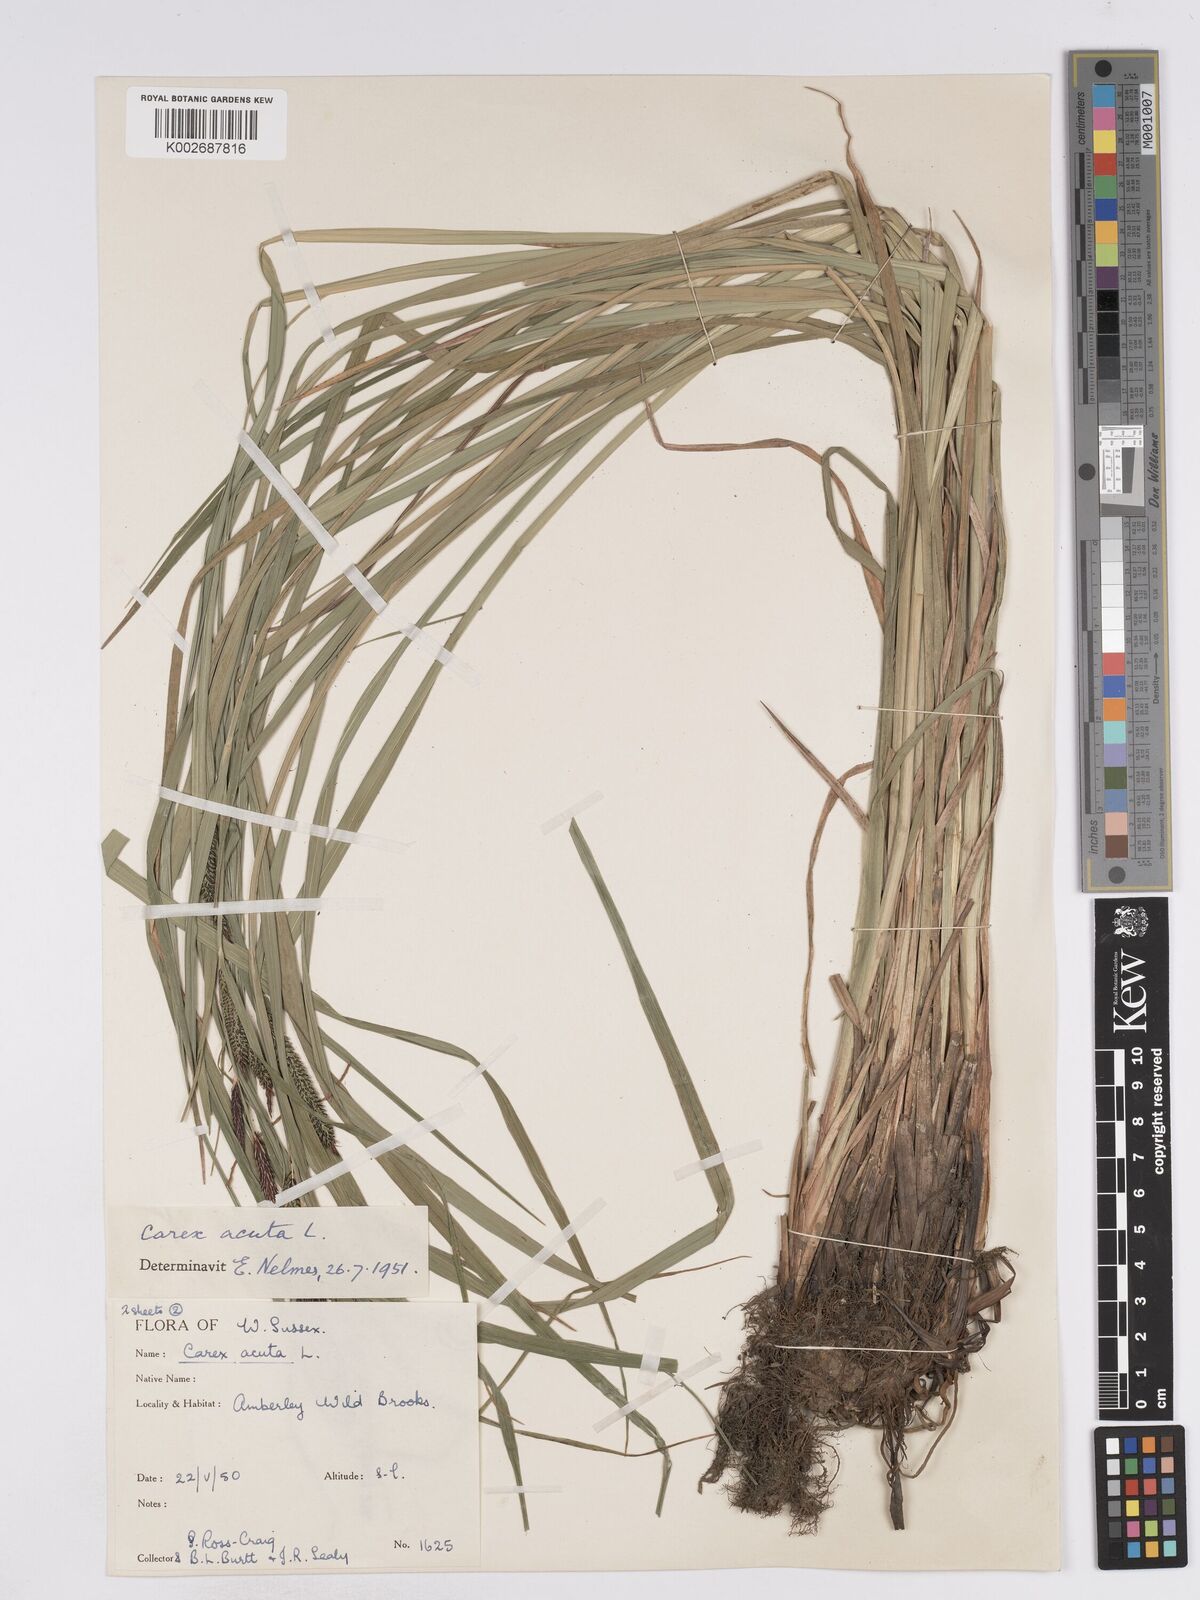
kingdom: Plantae
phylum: Tracheophyta
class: Liliopsida
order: Poales
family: Cyperaceae
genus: Carex
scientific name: Carex acuta
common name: Slender tufted-sedge
